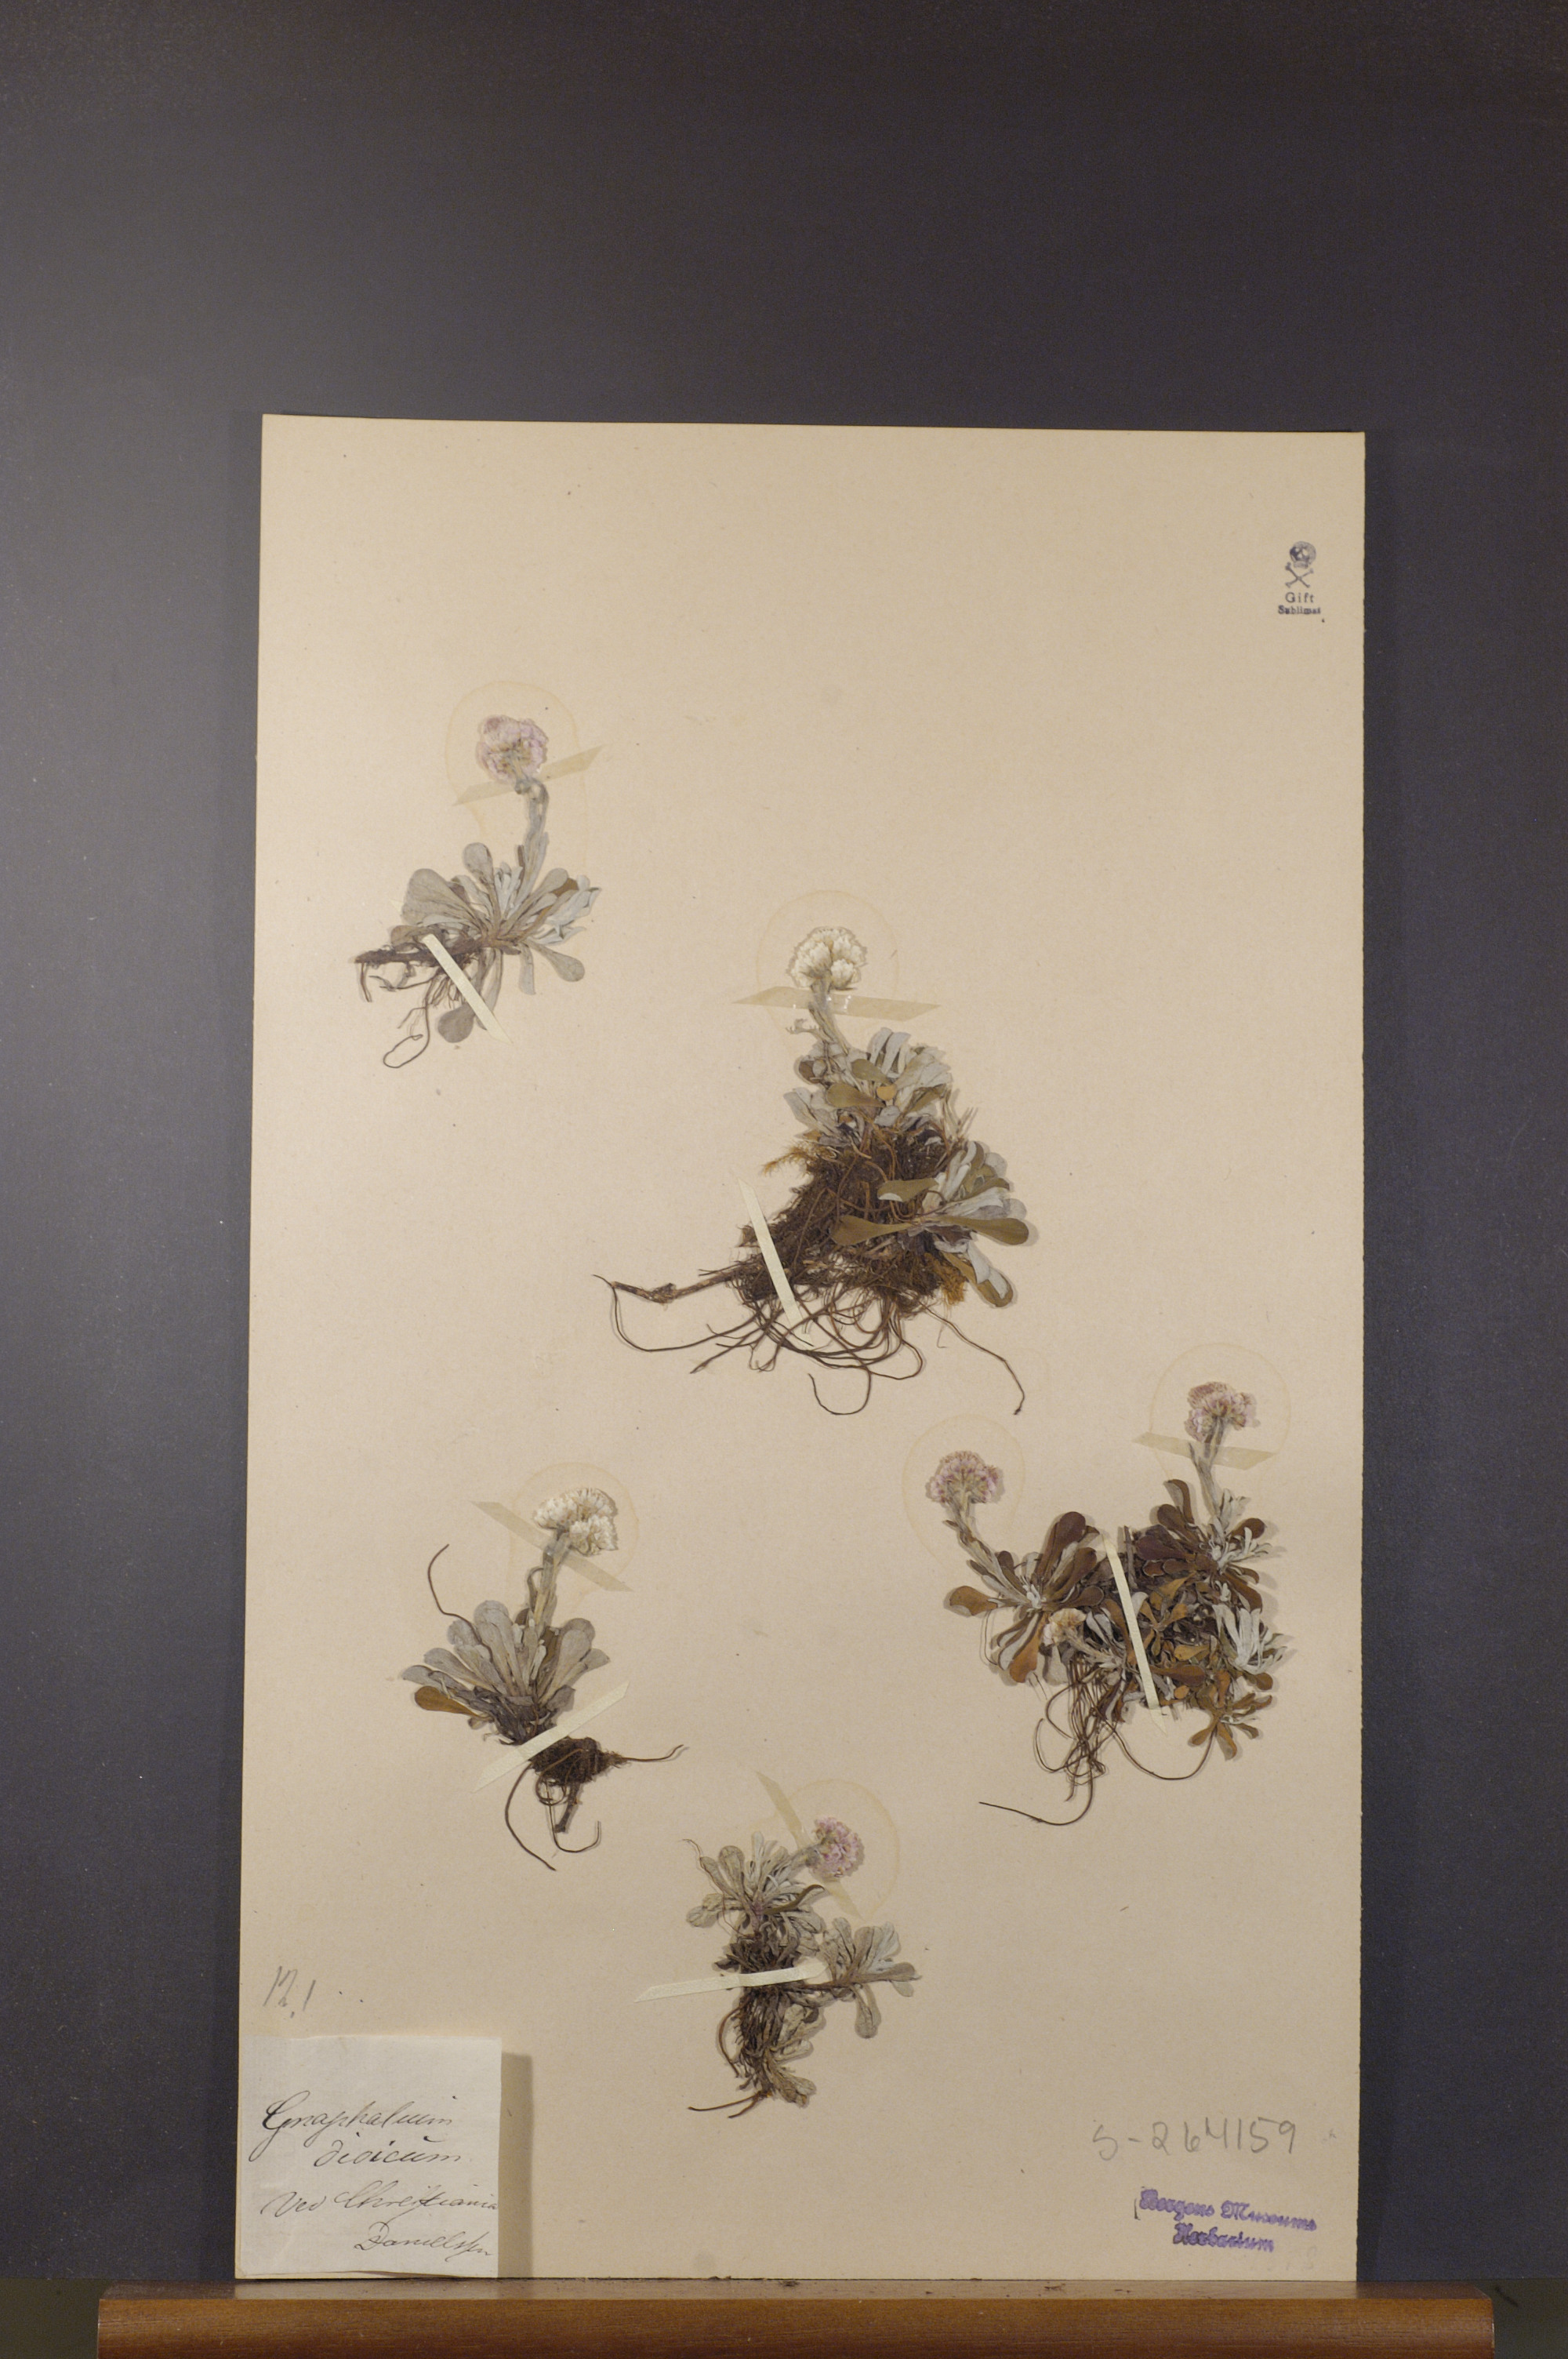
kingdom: Plantae
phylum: Tracheophyta
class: Magnoliopsida
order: Asterales
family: Asteraceae
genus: Antennaria
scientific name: Antennaria dioica
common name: Mountain everlasting
